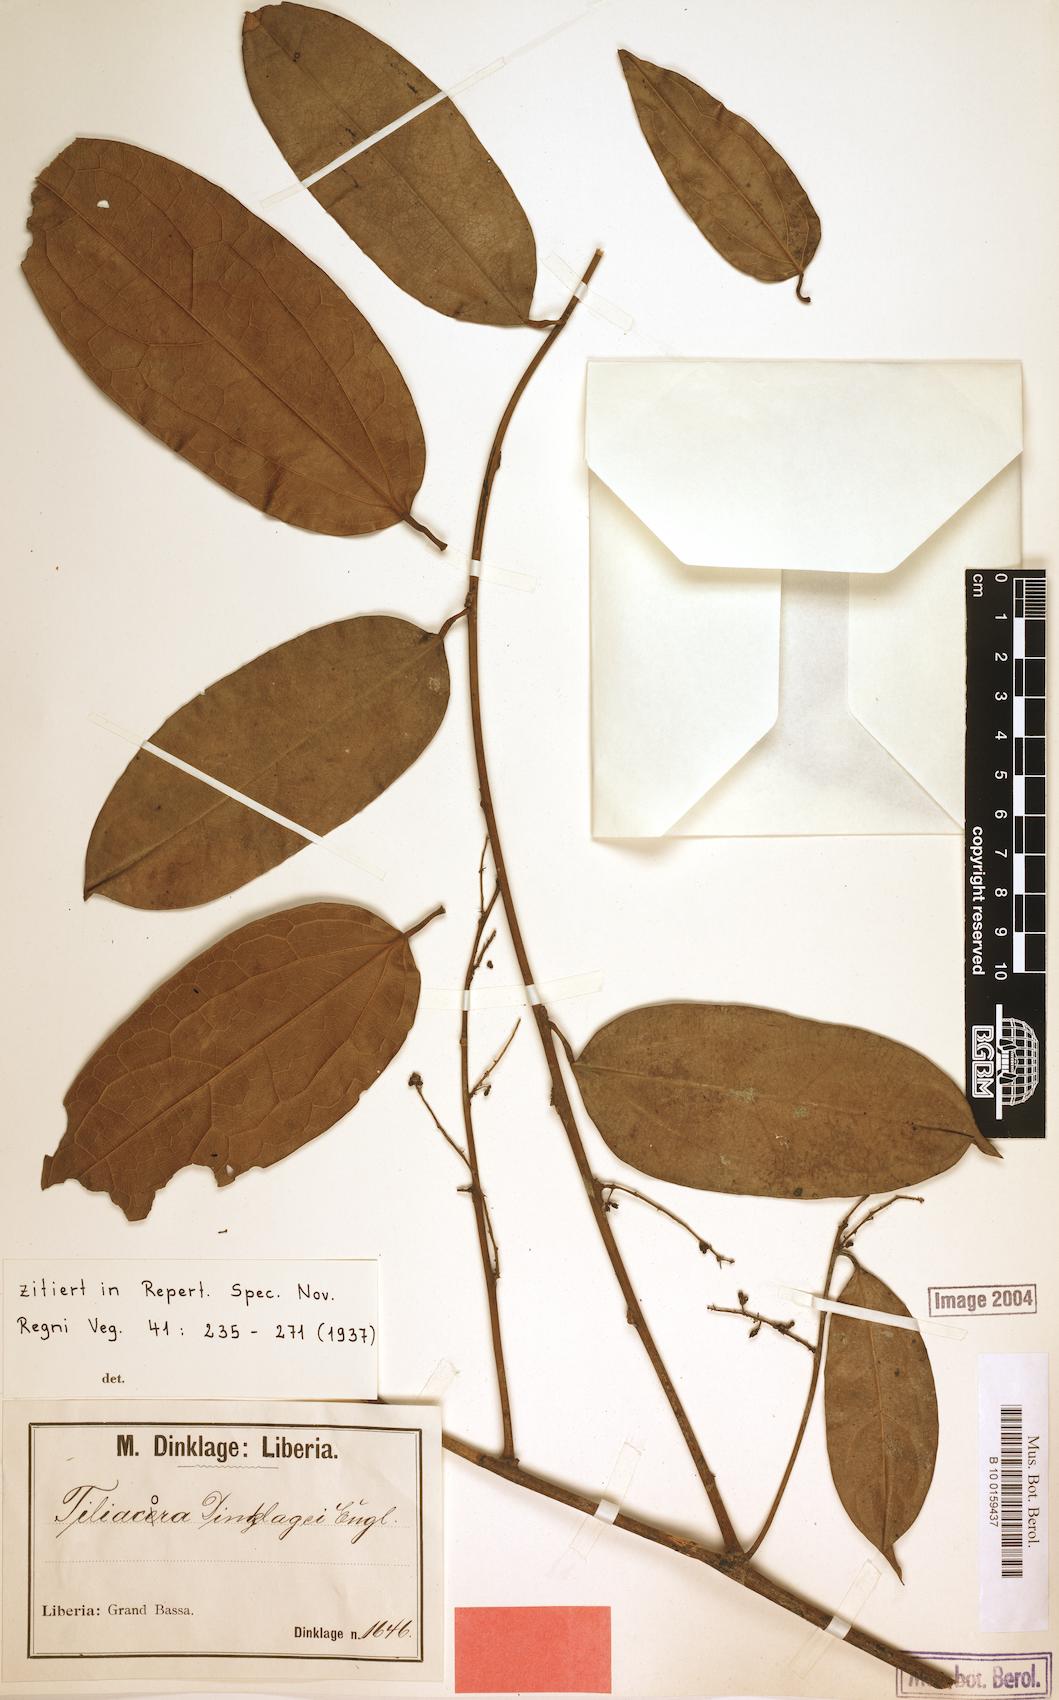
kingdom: Plantae
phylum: Tracheophyta
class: Magnoliopsida
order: Ranunculales
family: Menispermaceae
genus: Tiliacora
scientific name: Tiliacora leonensis
